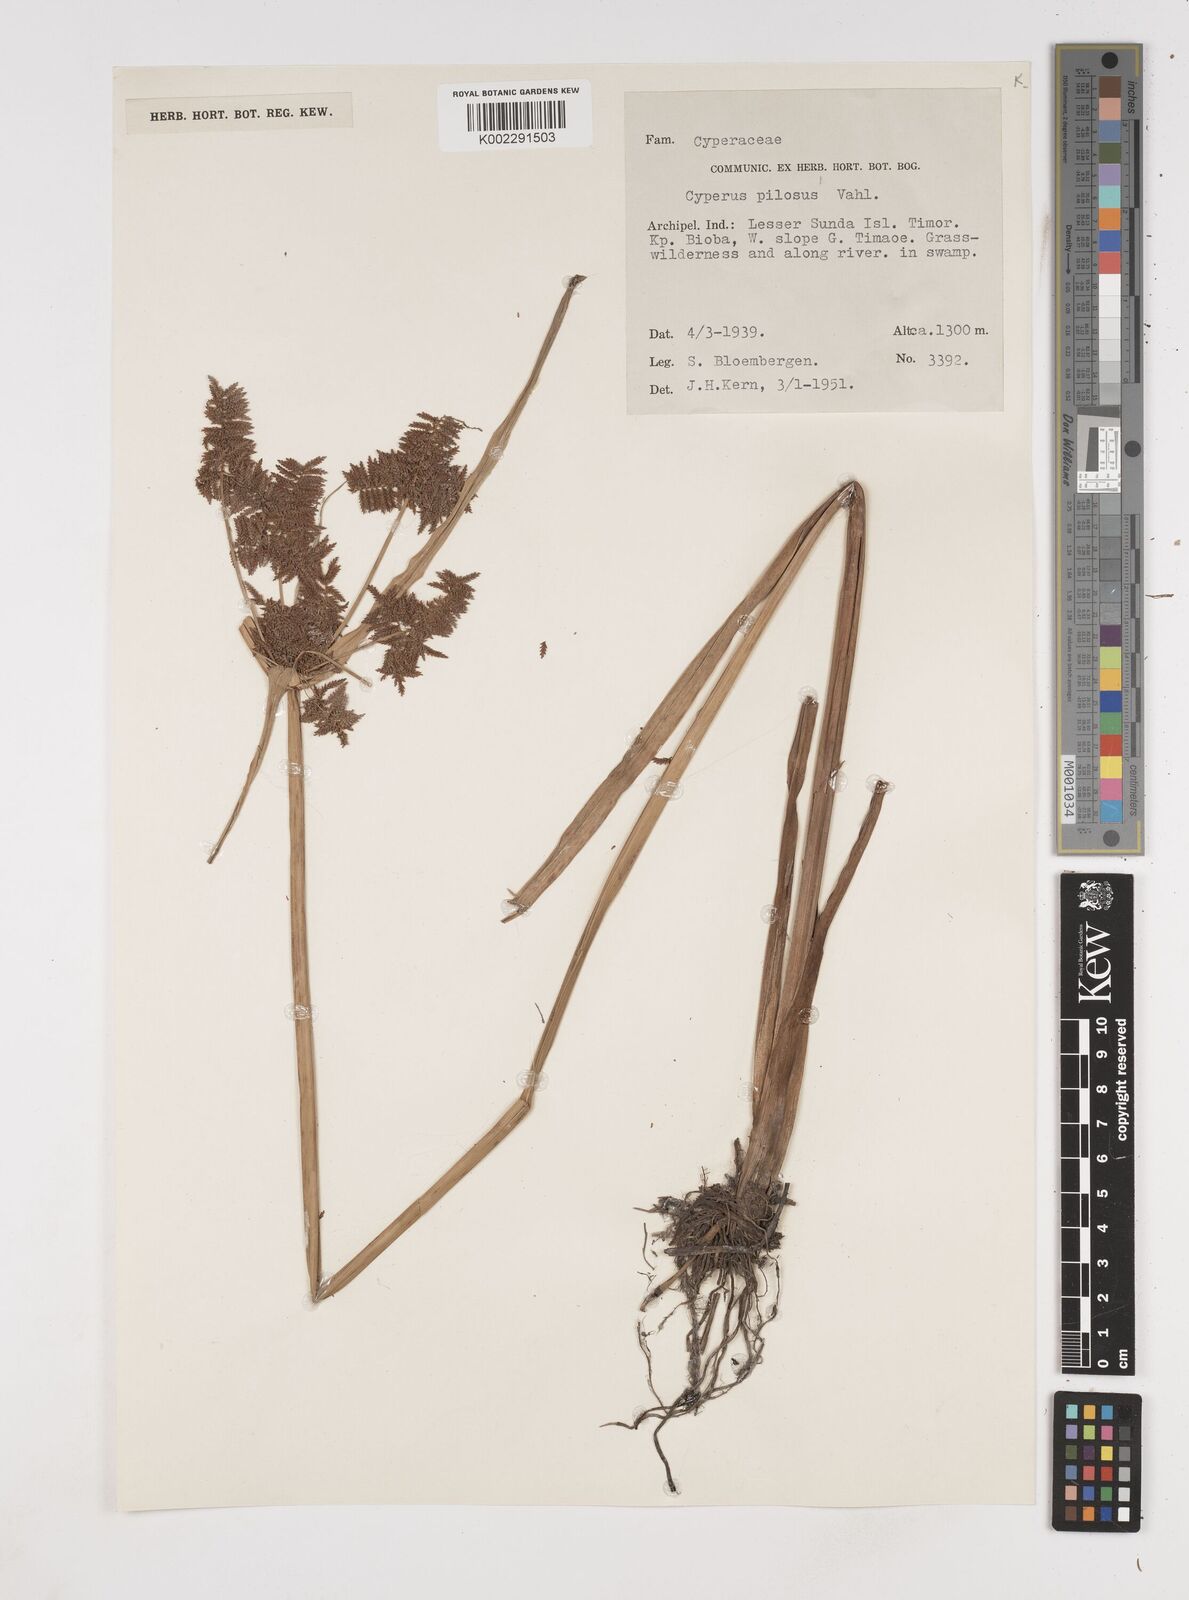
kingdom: Plantae
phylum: Tracheophyta
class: Liliopsida
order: Poales
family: Cyperaceae
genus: Cyperus
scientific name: Cyperus pilosus
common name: Fuzzy flatsedge
